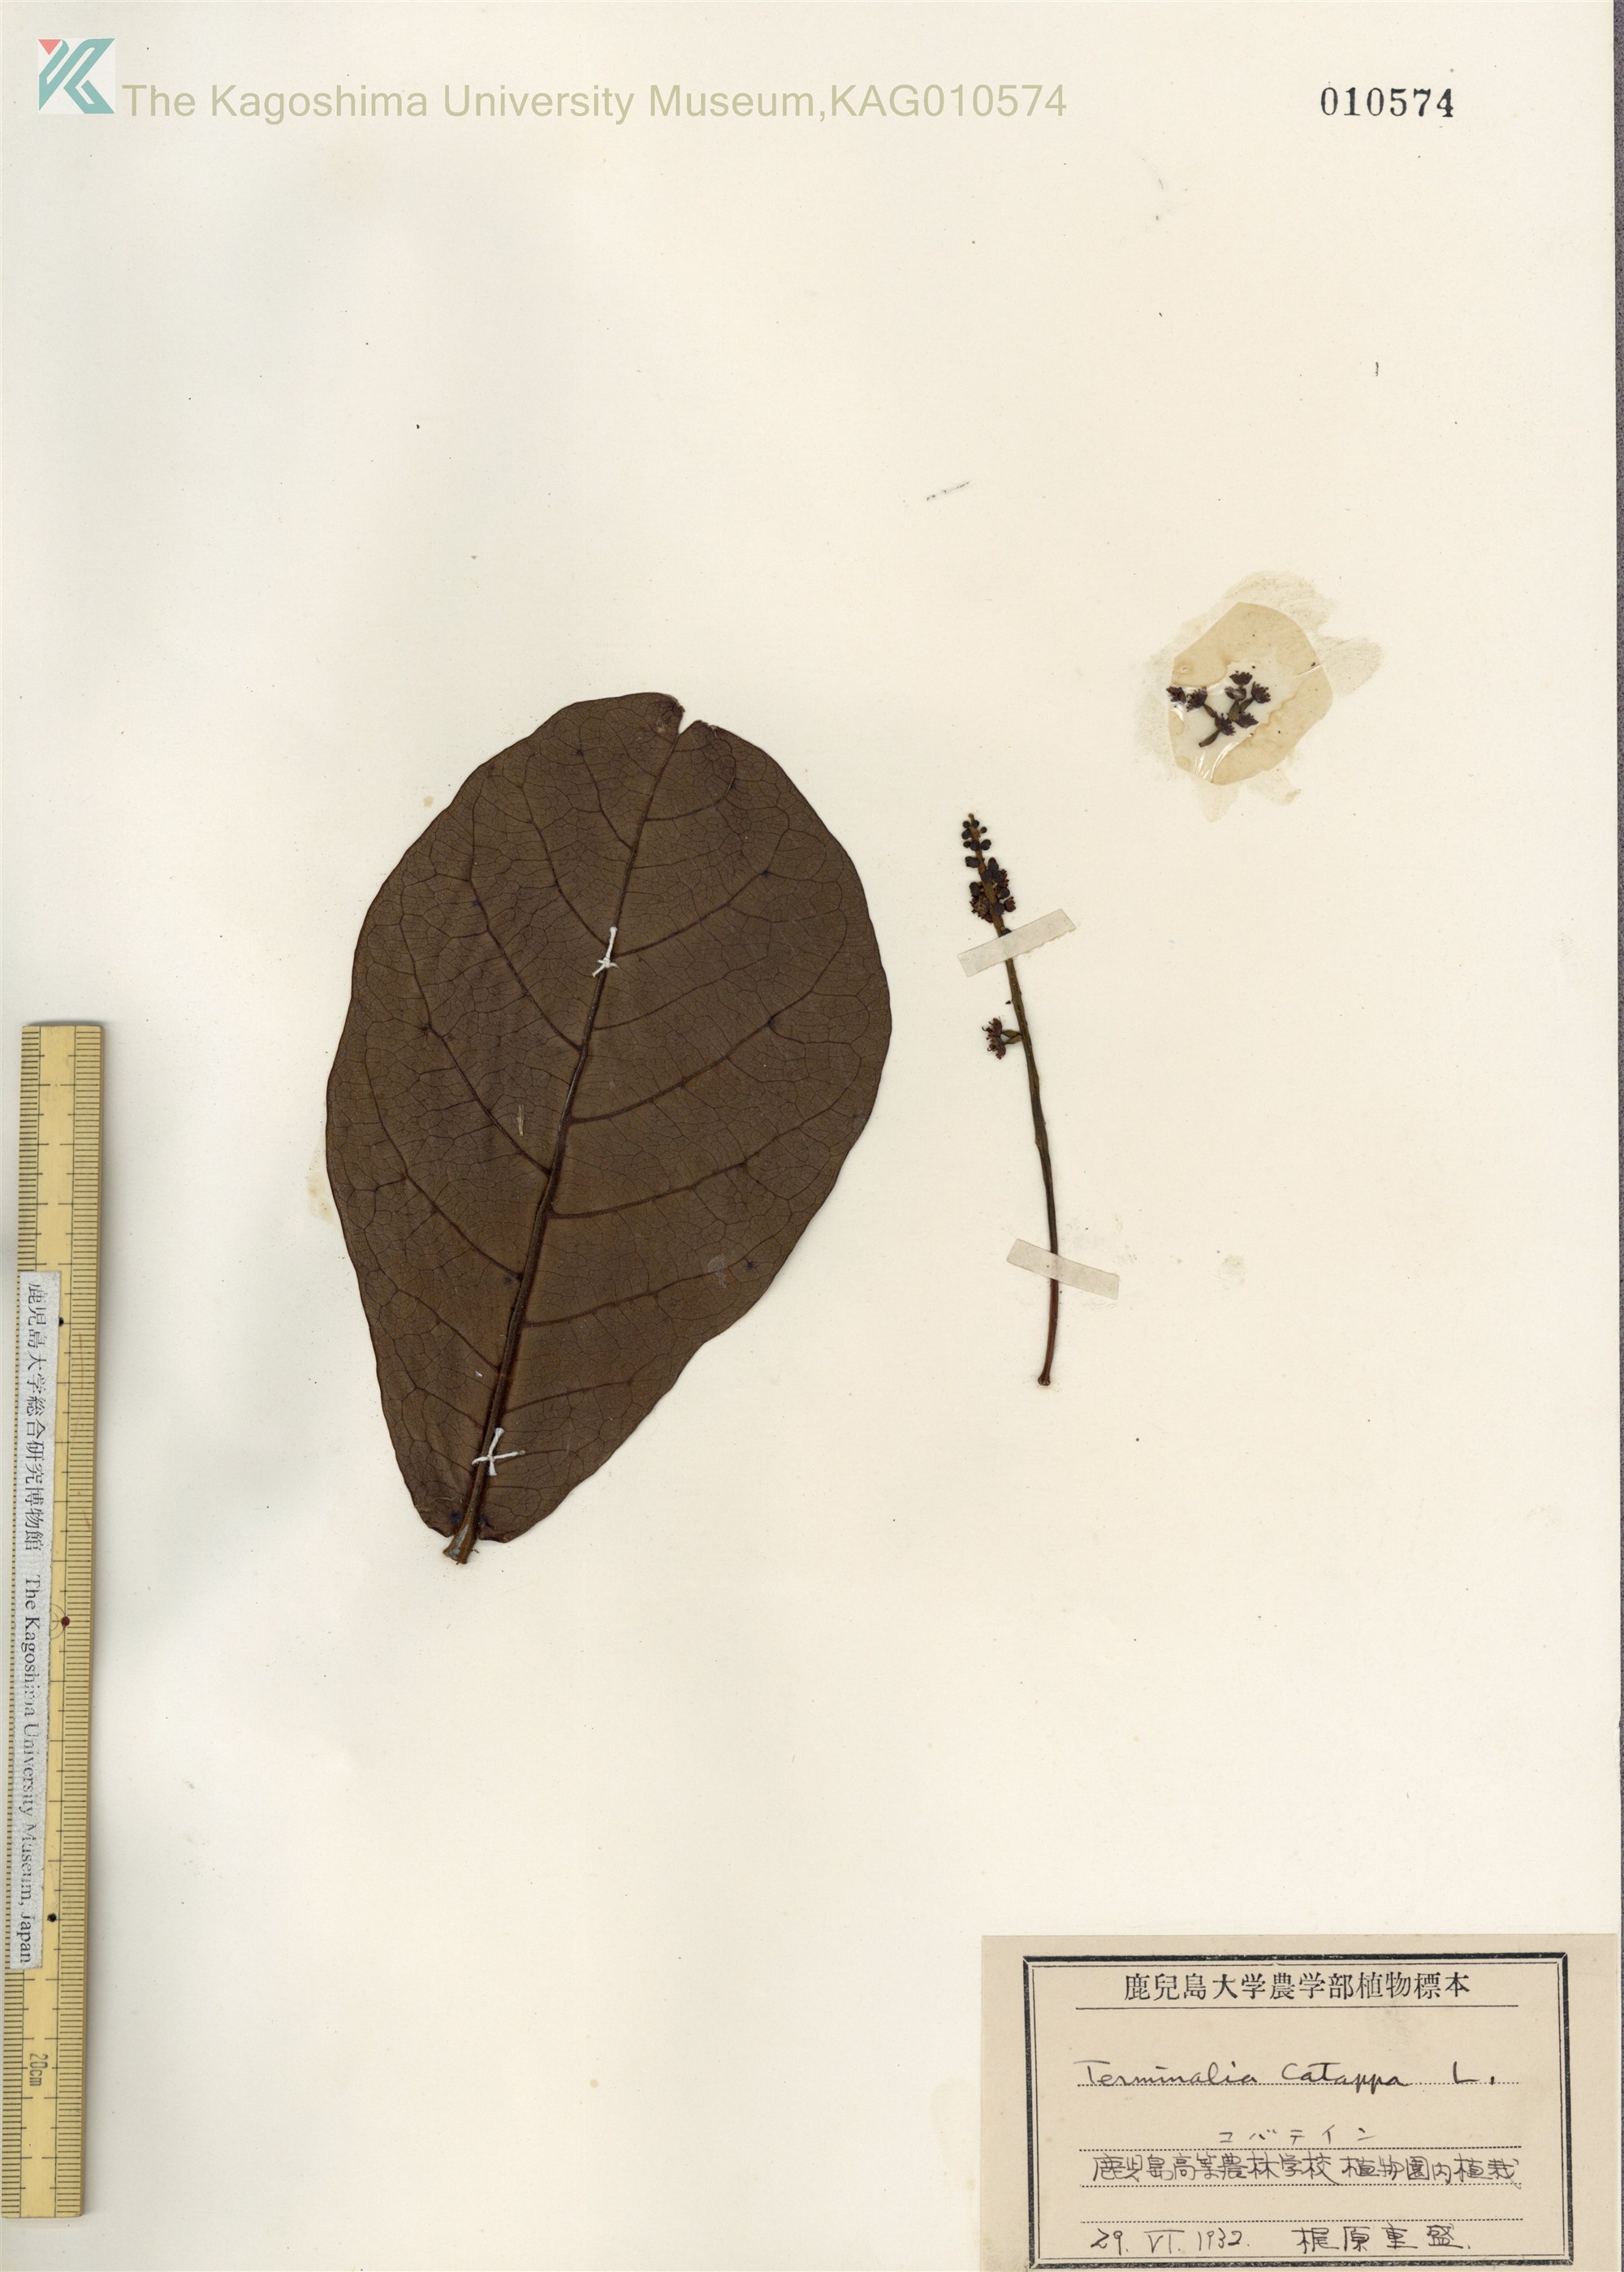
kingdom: Plantae
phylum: Tracheophyta
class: Magnoliopsida
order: Myrtales
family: Combretaceae
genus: Terminalia
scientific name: Terminalia catappa
